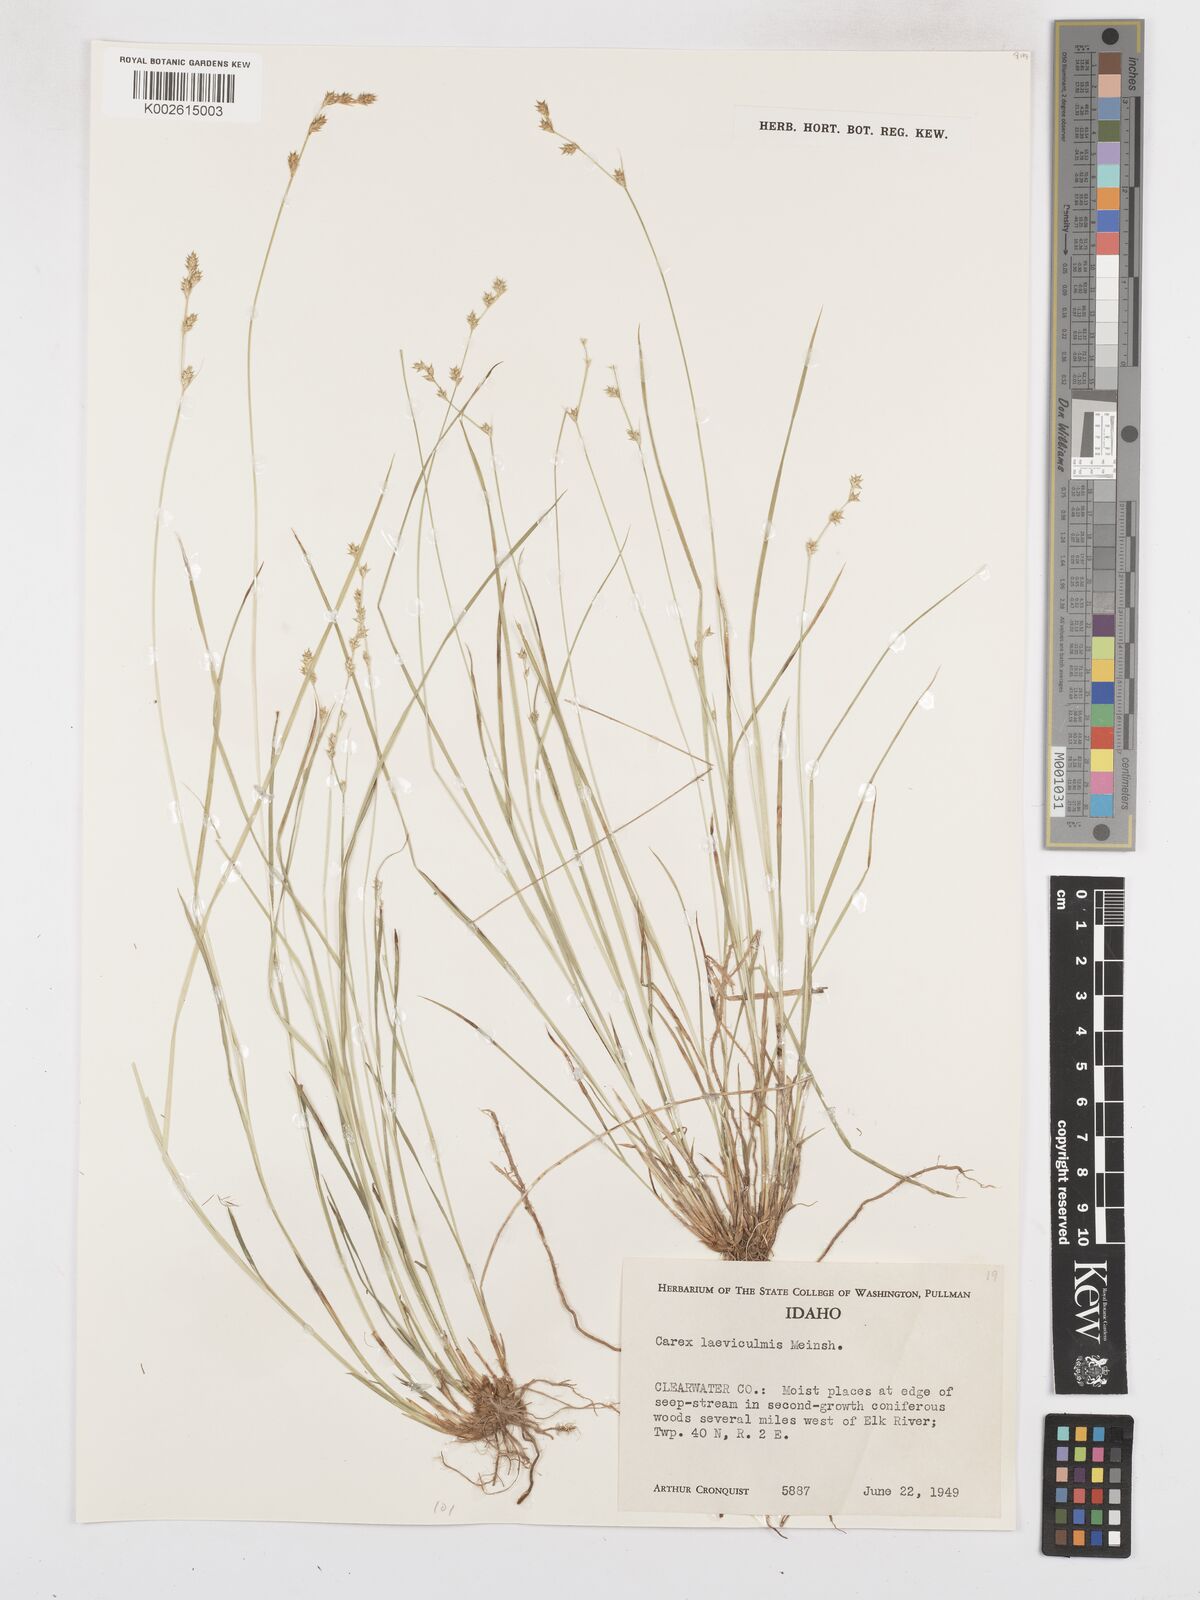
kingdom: Plantae
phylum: Tracheophyta
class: Liliopsida
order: Poales
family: Cyperaceae
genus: Carex
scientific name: Carex laeviculmis
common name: Smooth sedge
